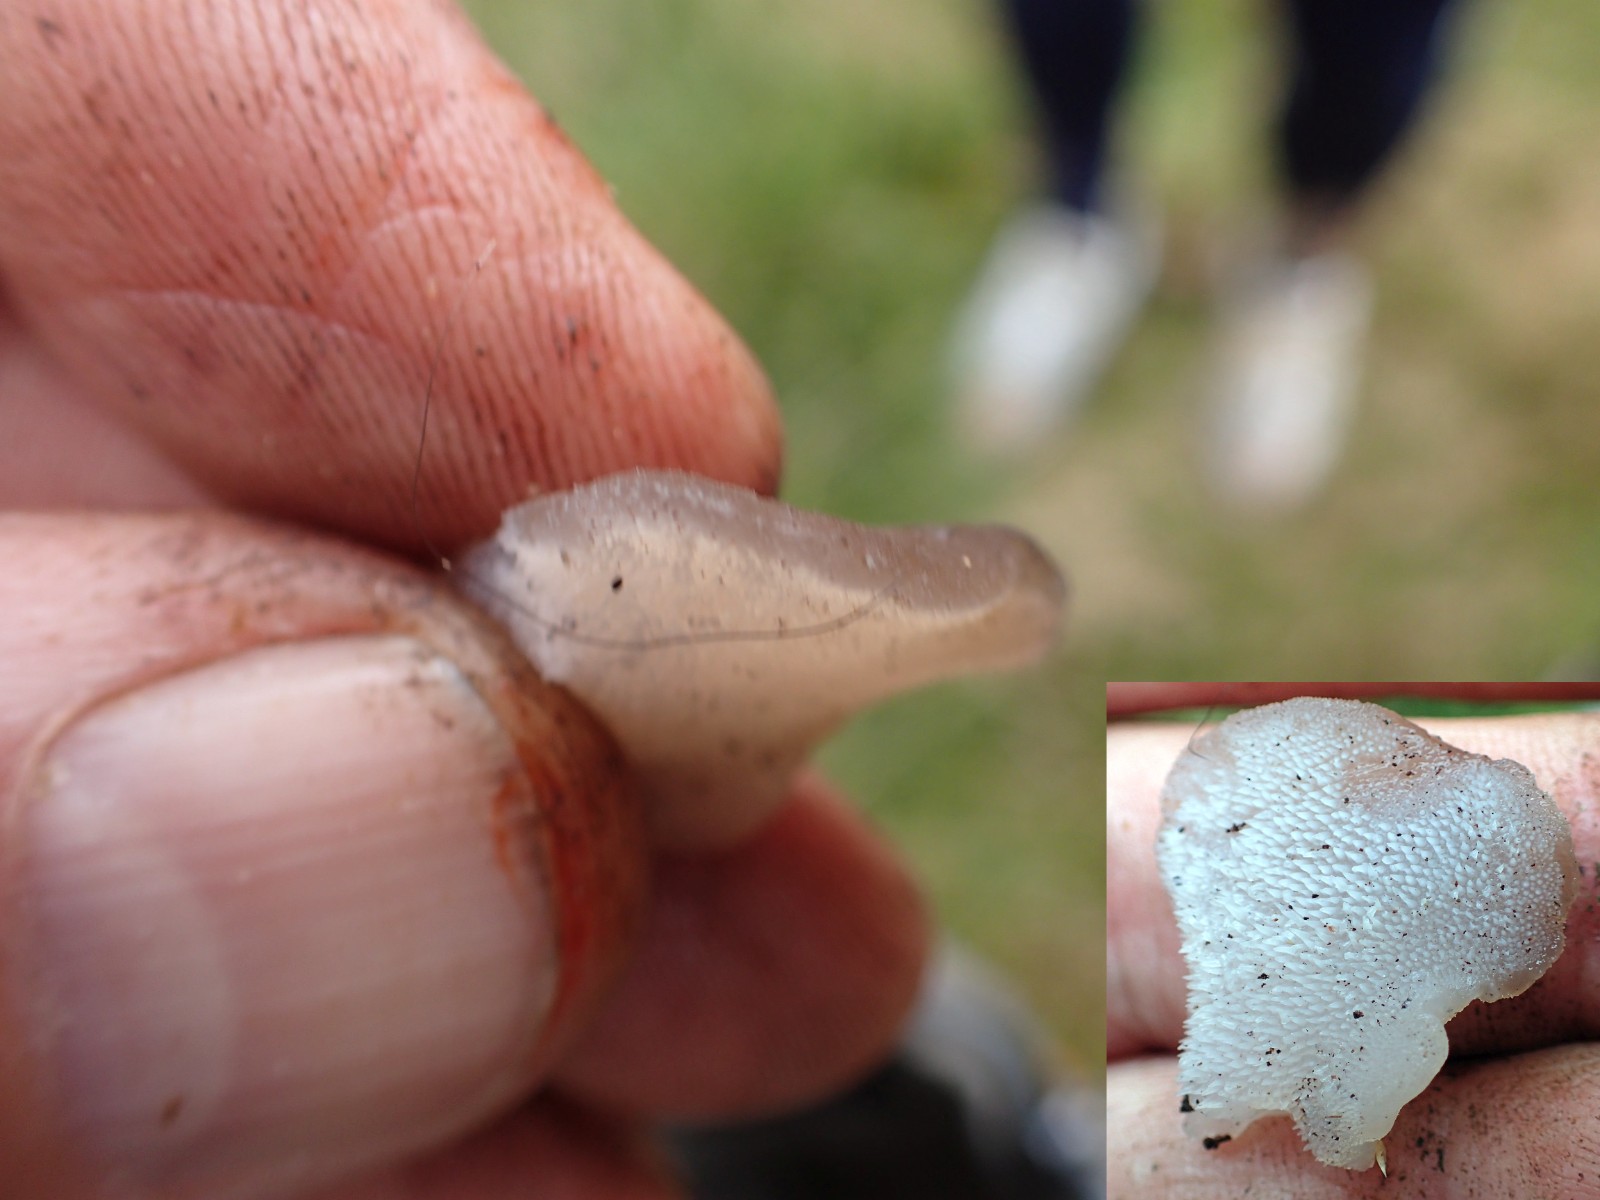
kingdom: Fungi
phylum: Basidiomycota
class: Agaricomycetes
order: Auriculariales
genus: Pseudohydnum
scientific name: Pseudohydnum gelatinosum
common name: bævretand
